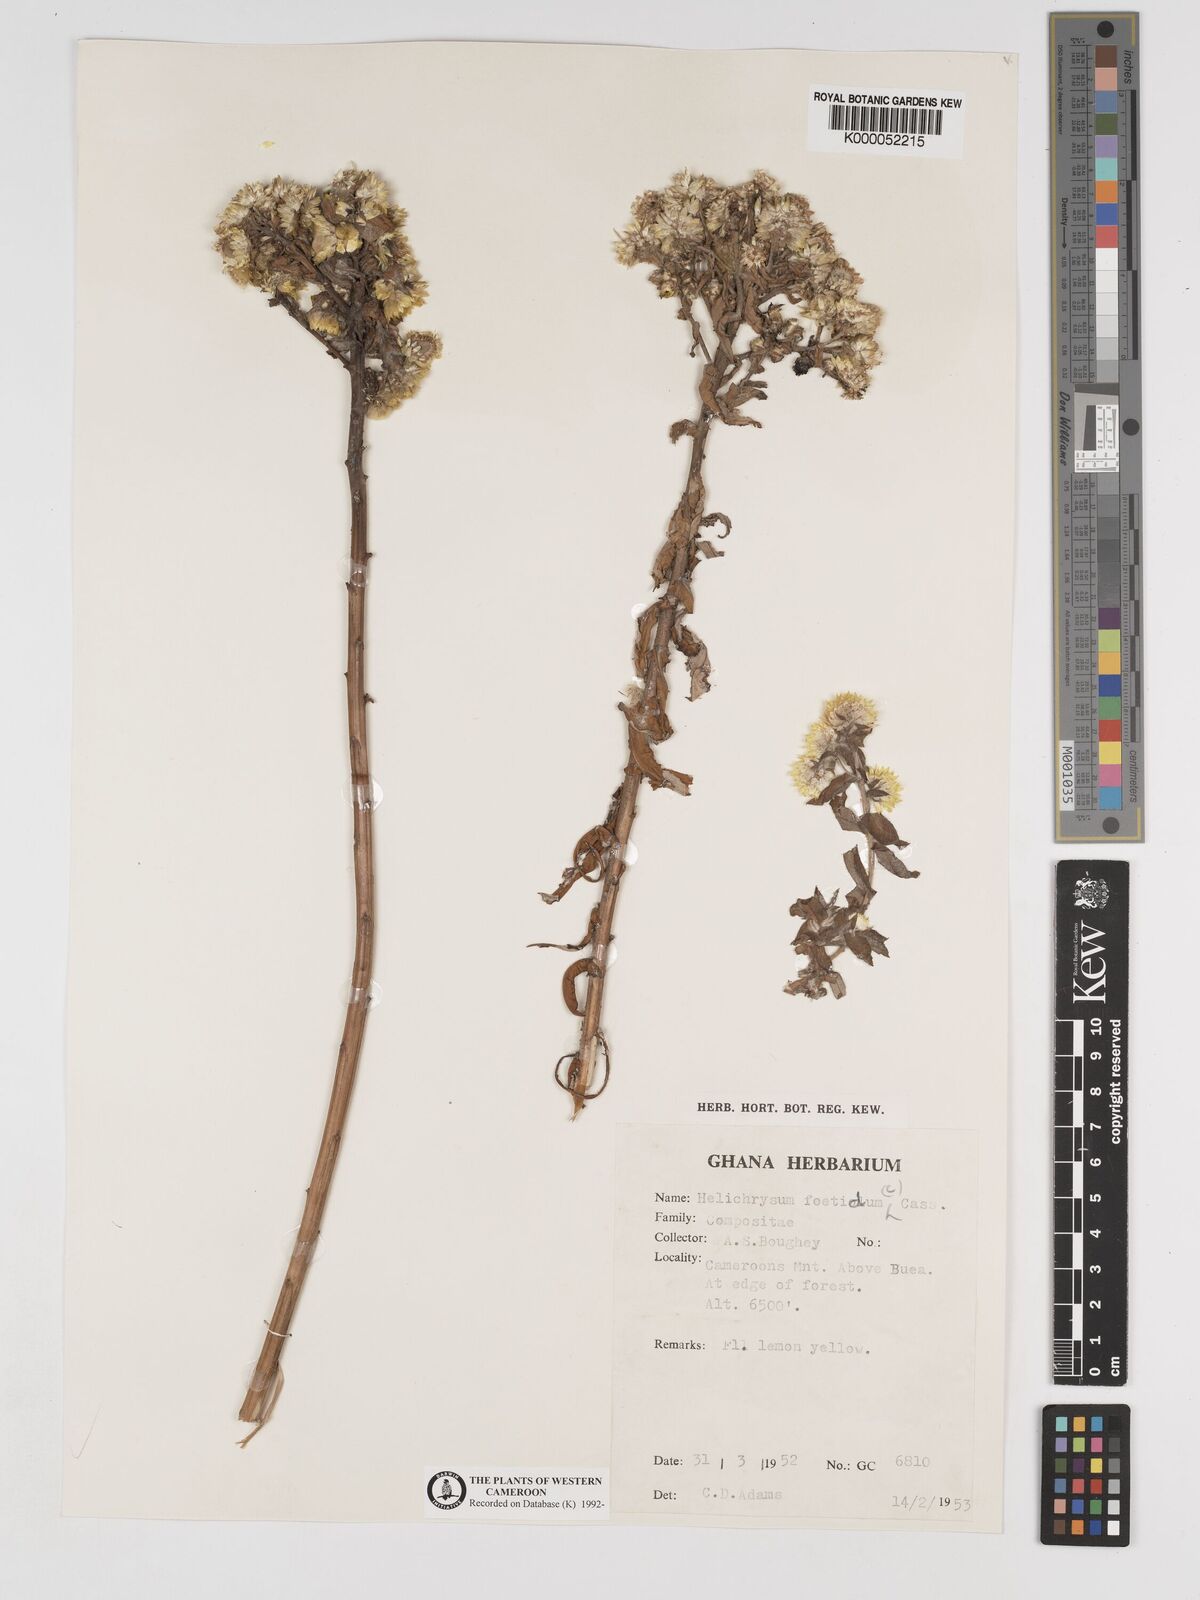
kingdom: Plantae
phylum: Tracheophyta
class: Magnoliopsida
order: Asterales
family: Asteraceae
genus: Helichrysum
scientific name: Helichrysum foetidum
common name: Stinking everlasting
